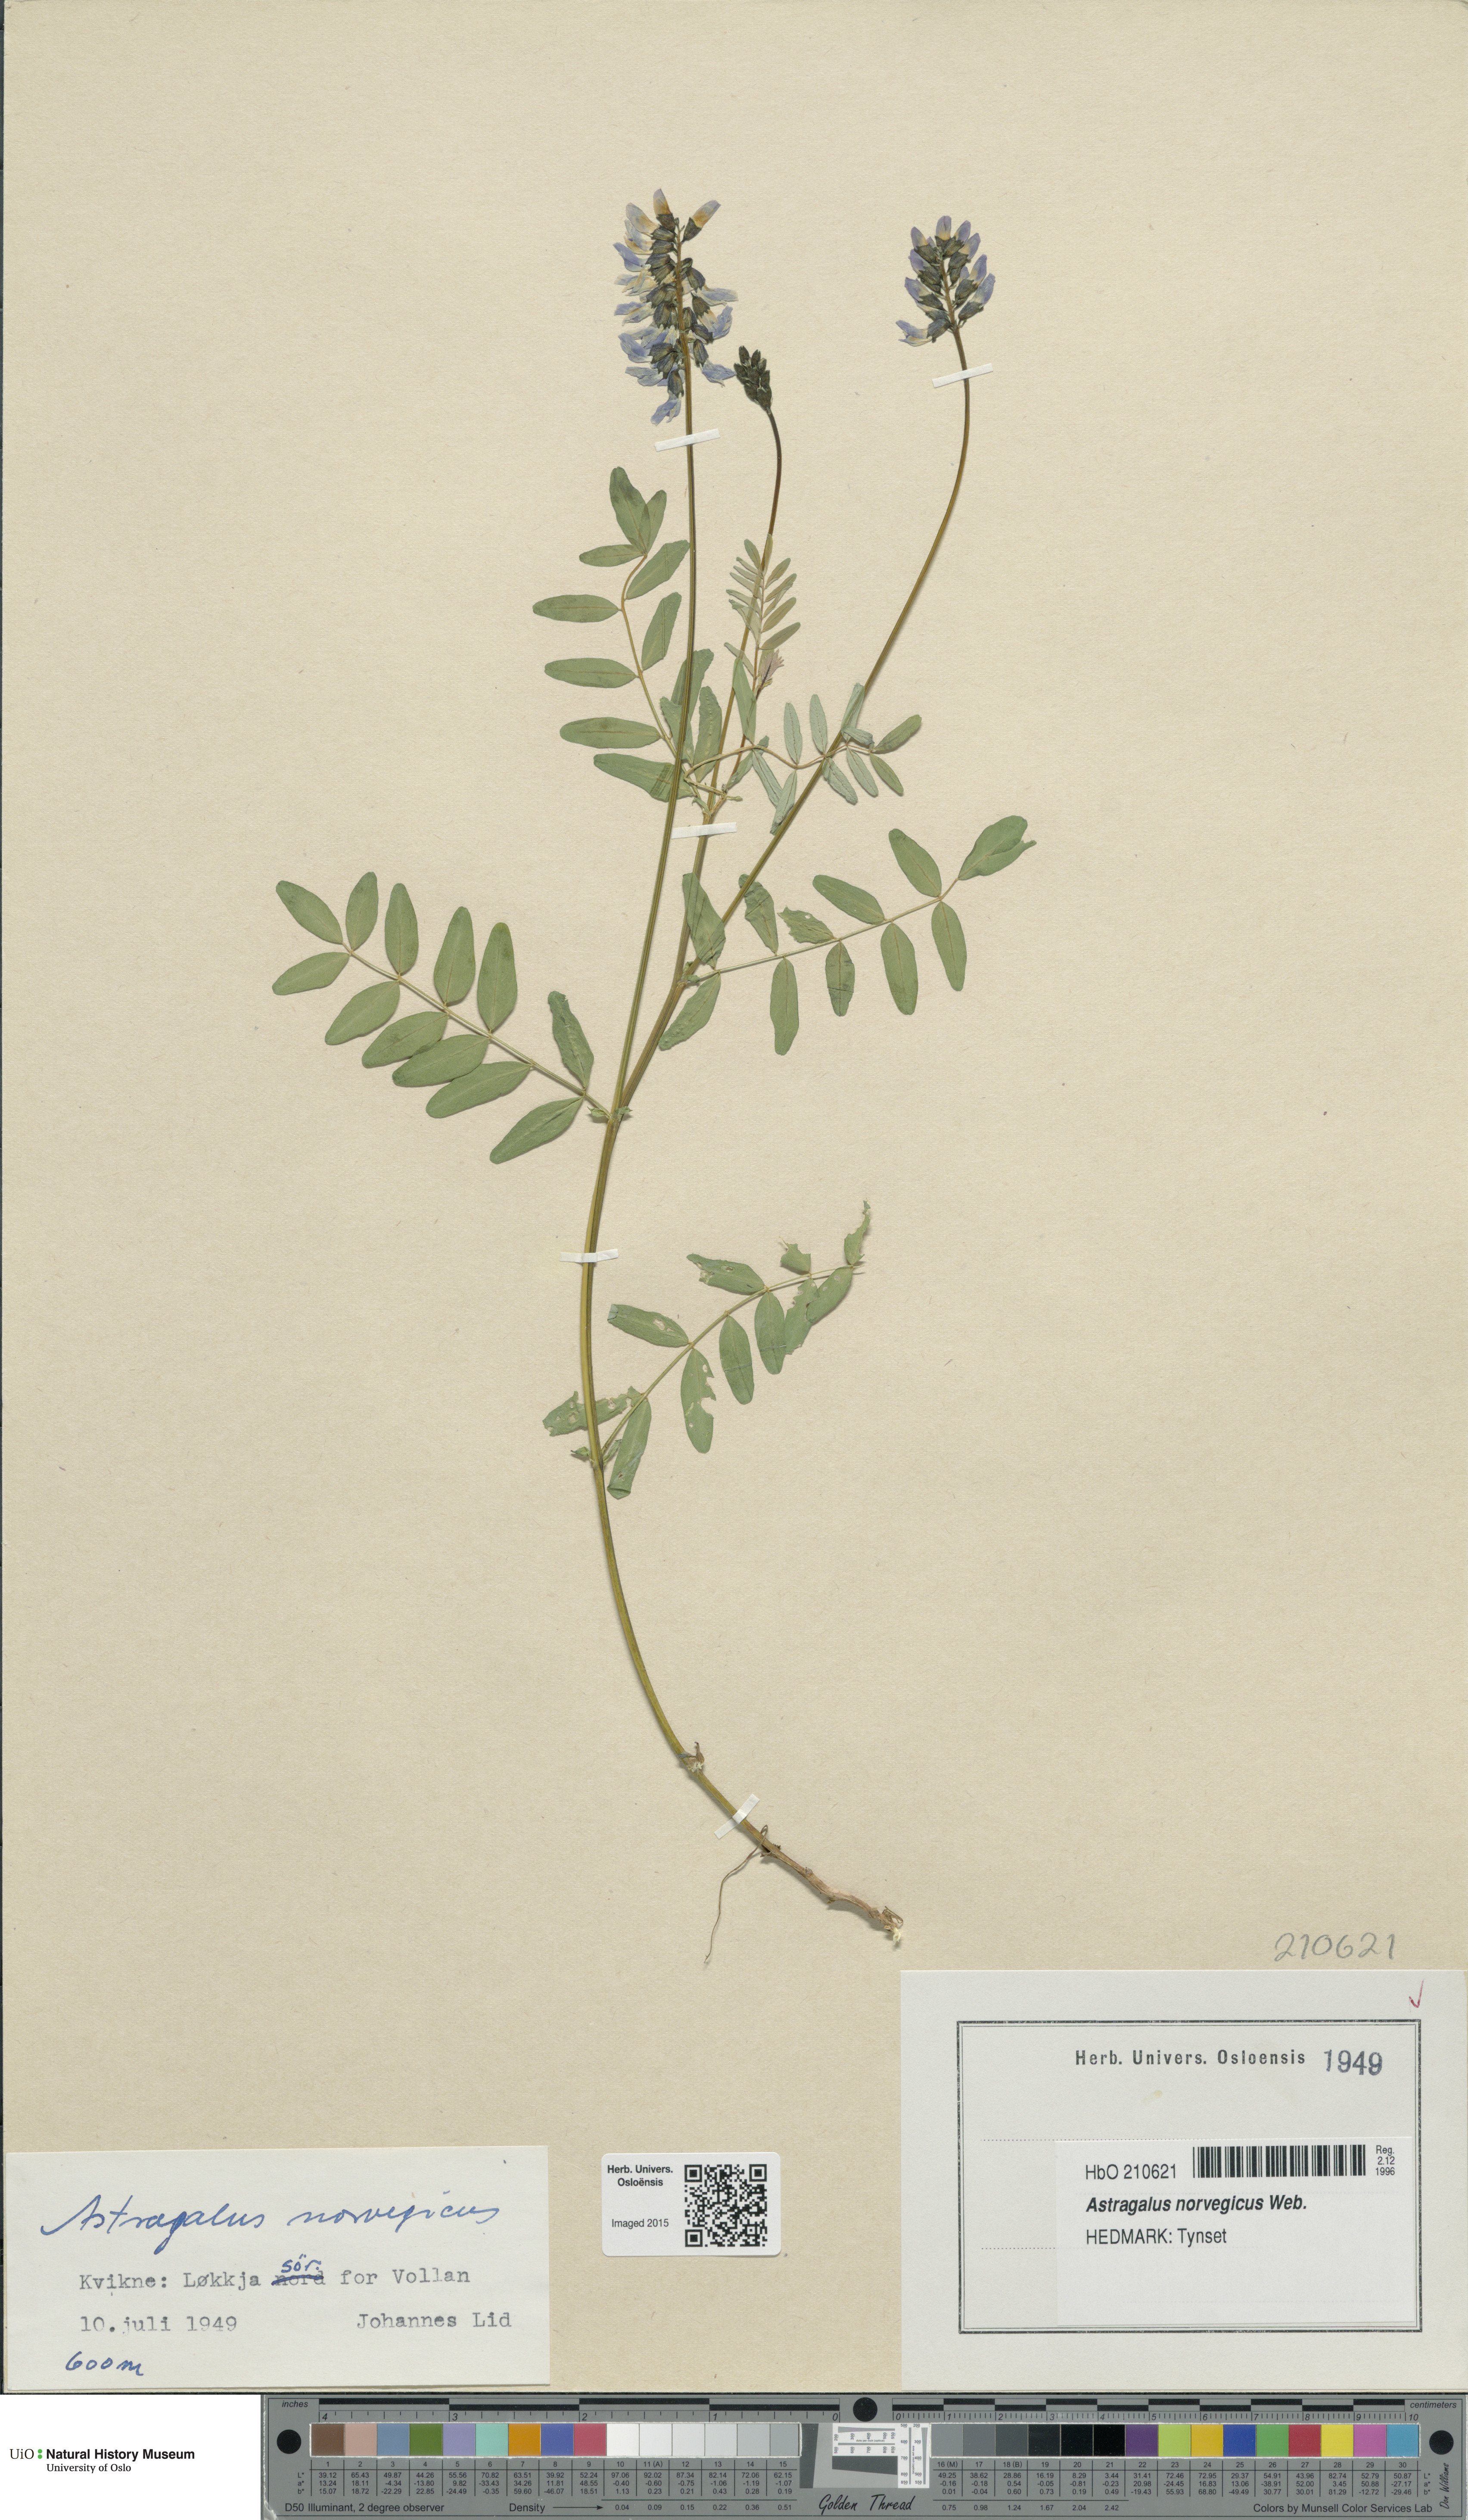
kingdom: Plantae
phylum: Tracheophyta
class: Magnoliopsida
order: Fabales
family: Fabaceae
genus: Astragalus
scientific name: Astragalus norvegicus
